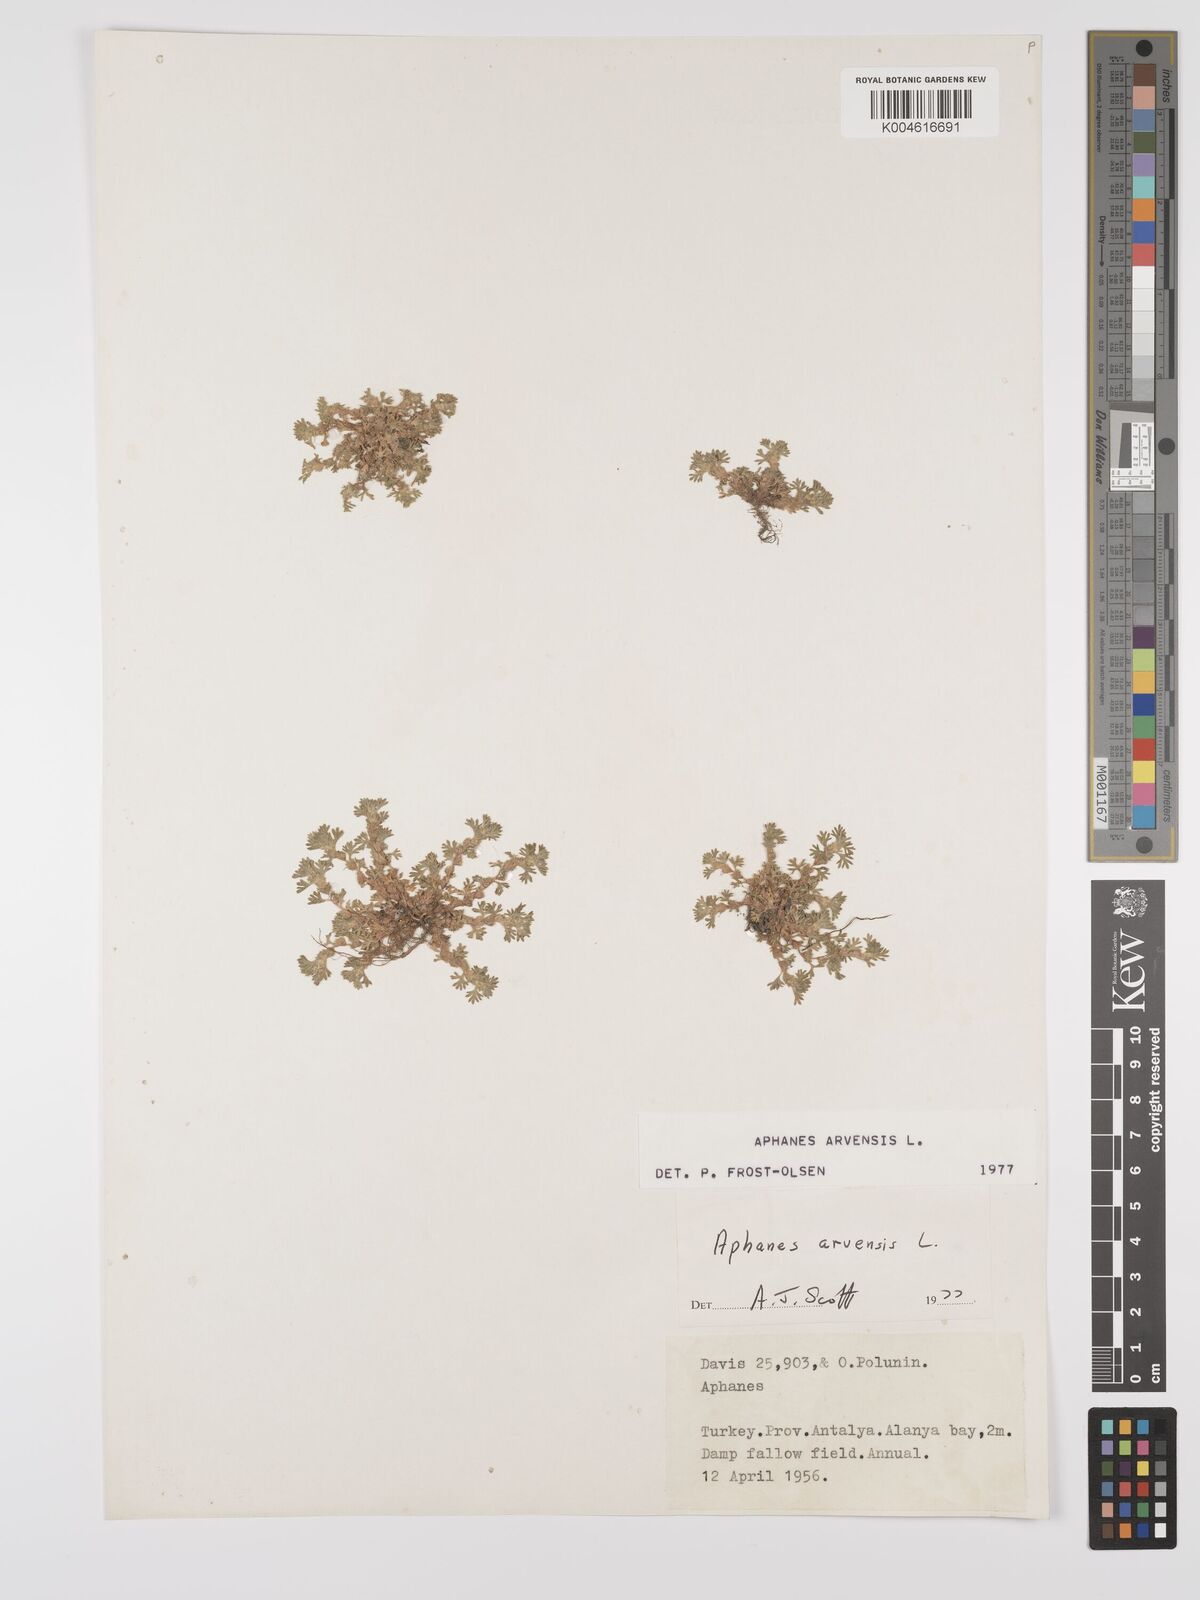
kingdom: Plantae
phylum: Tracheophyta
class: Magnoliopsida
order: Rosales
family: Rosaceae
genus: Aphanes
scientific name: Aphanes arvensis
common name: Parsley-piert
